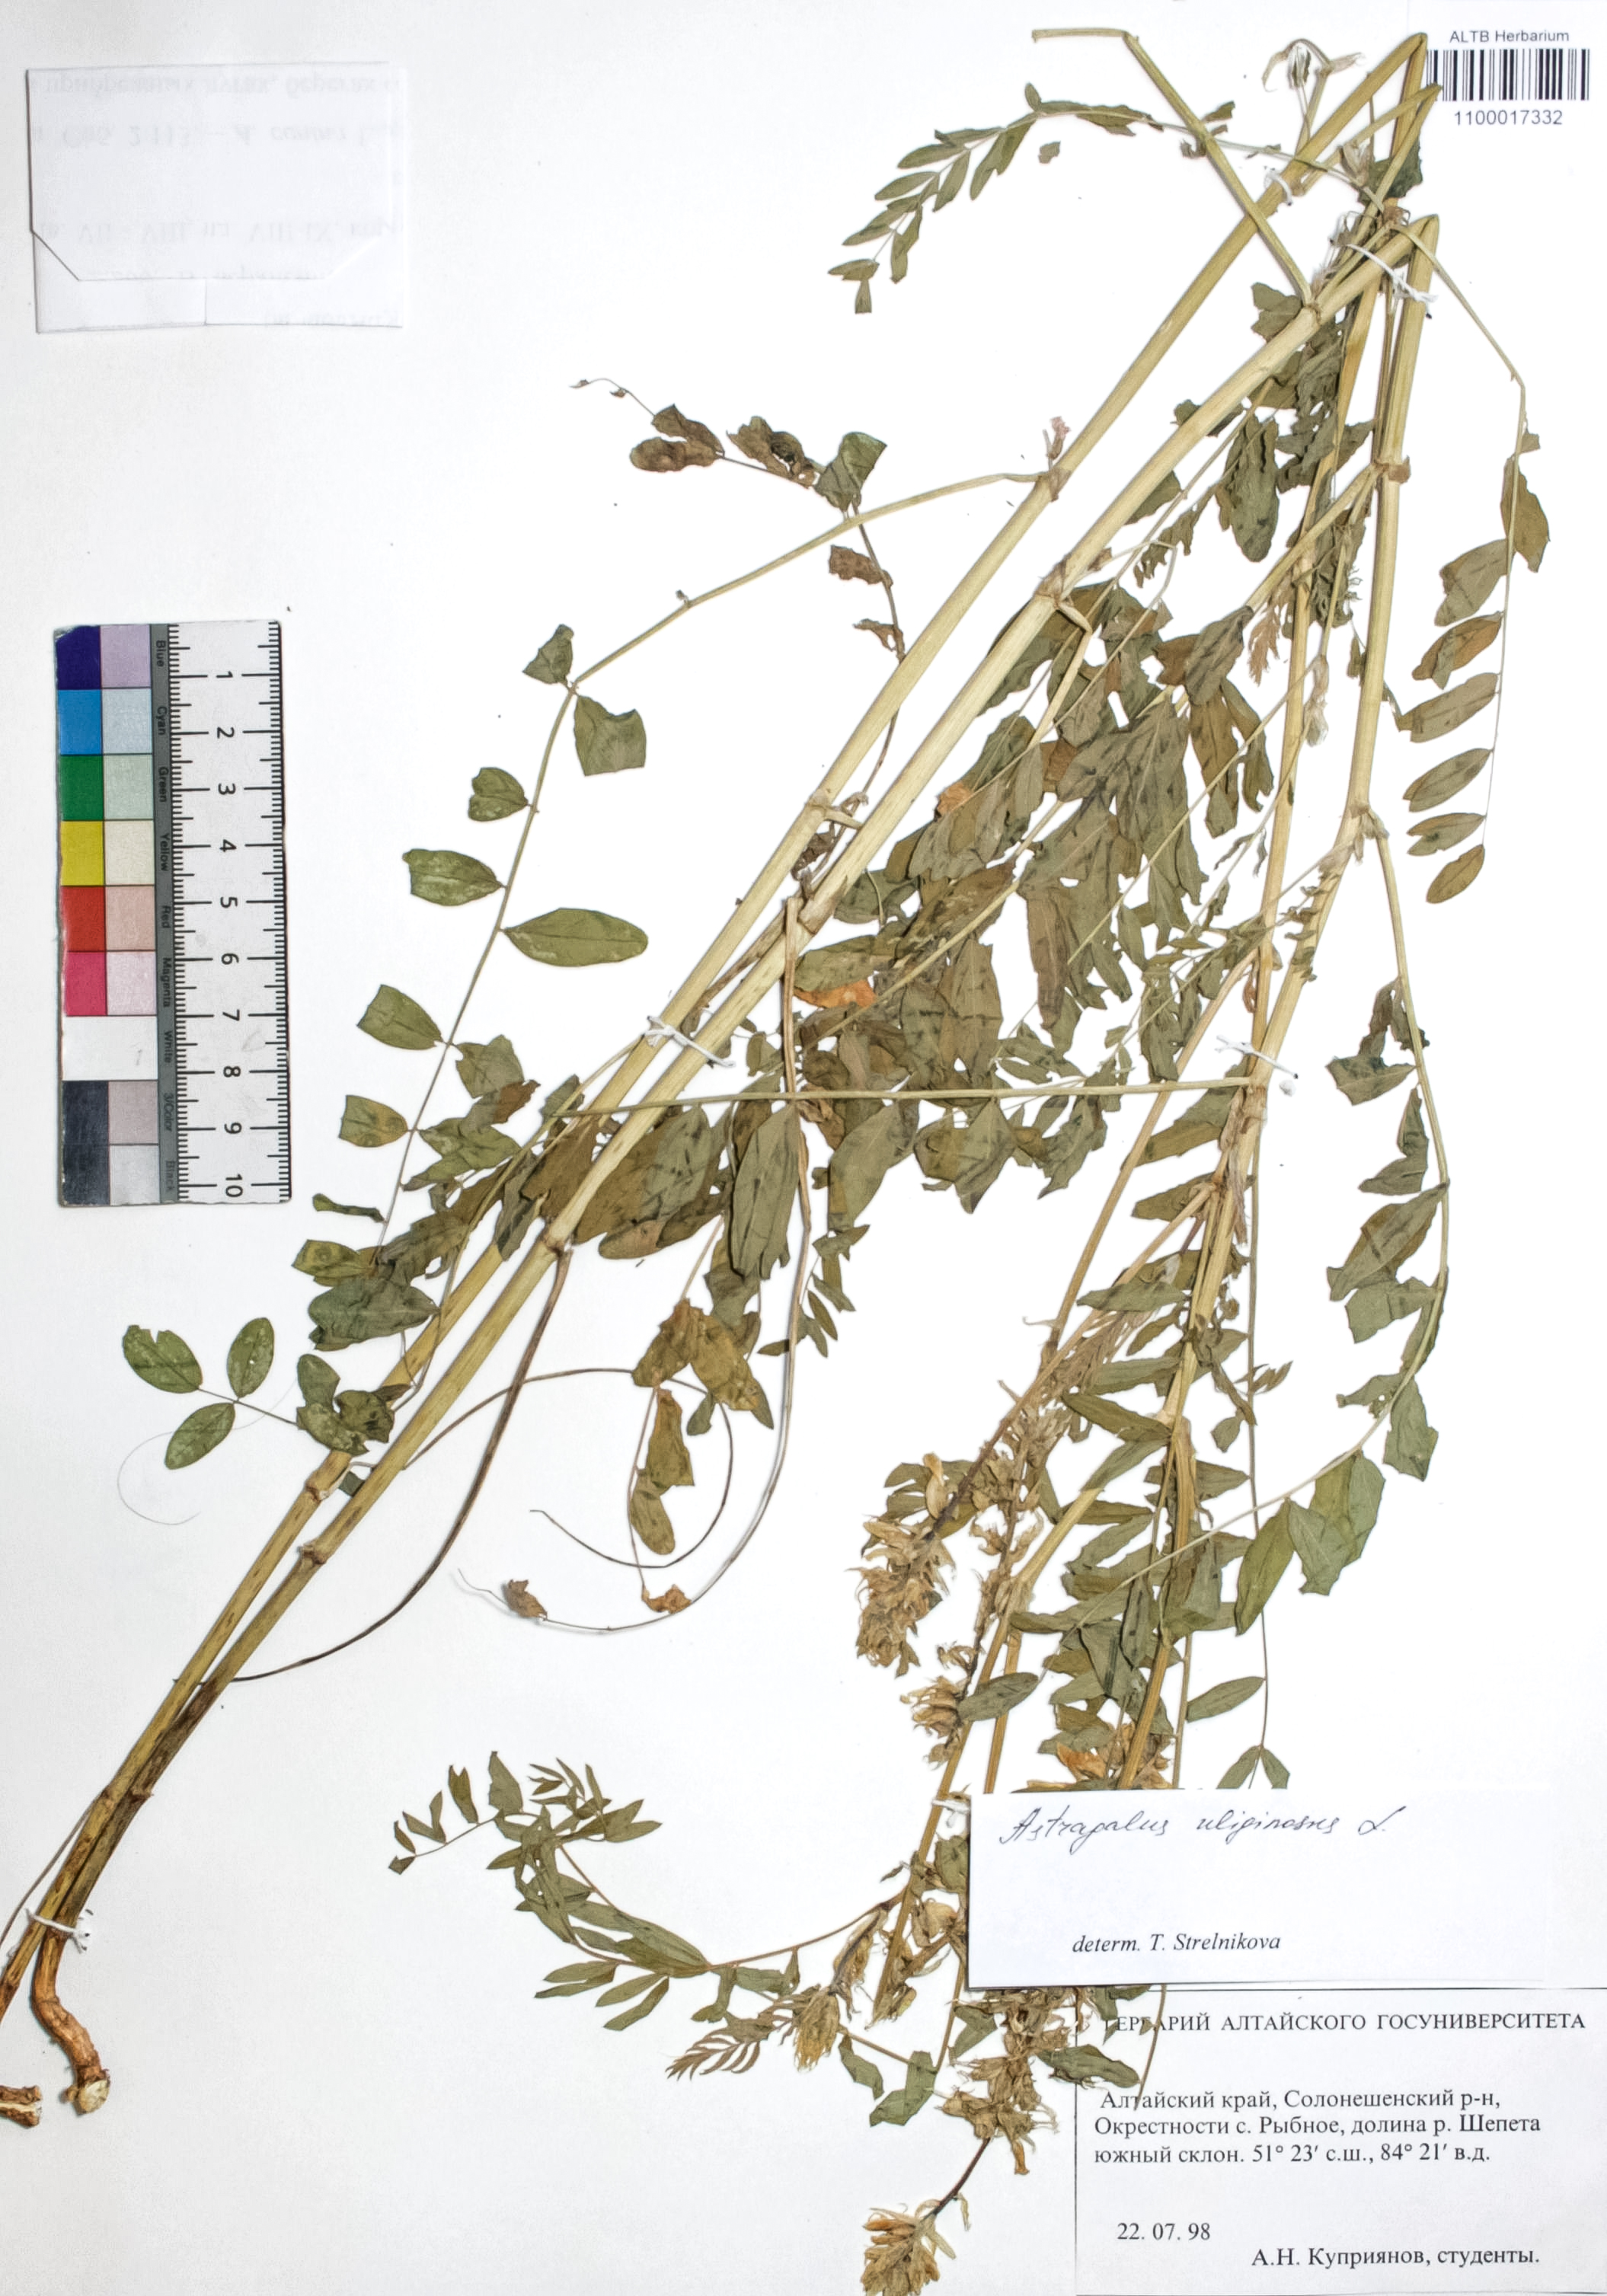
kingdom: Plantae
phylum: Tracheophyta
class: Magnoliopsida
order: Fabales
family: Fabaceae
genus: Astragalus
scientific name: Astragalus uliginosus
